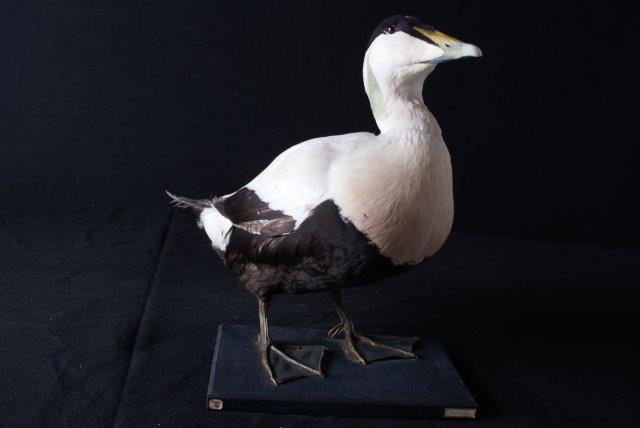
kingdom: Animalia
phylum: Chordata
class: Aves
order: Anseriformes
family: Anatidae
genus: Somateria
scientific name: Somateria mollissima
